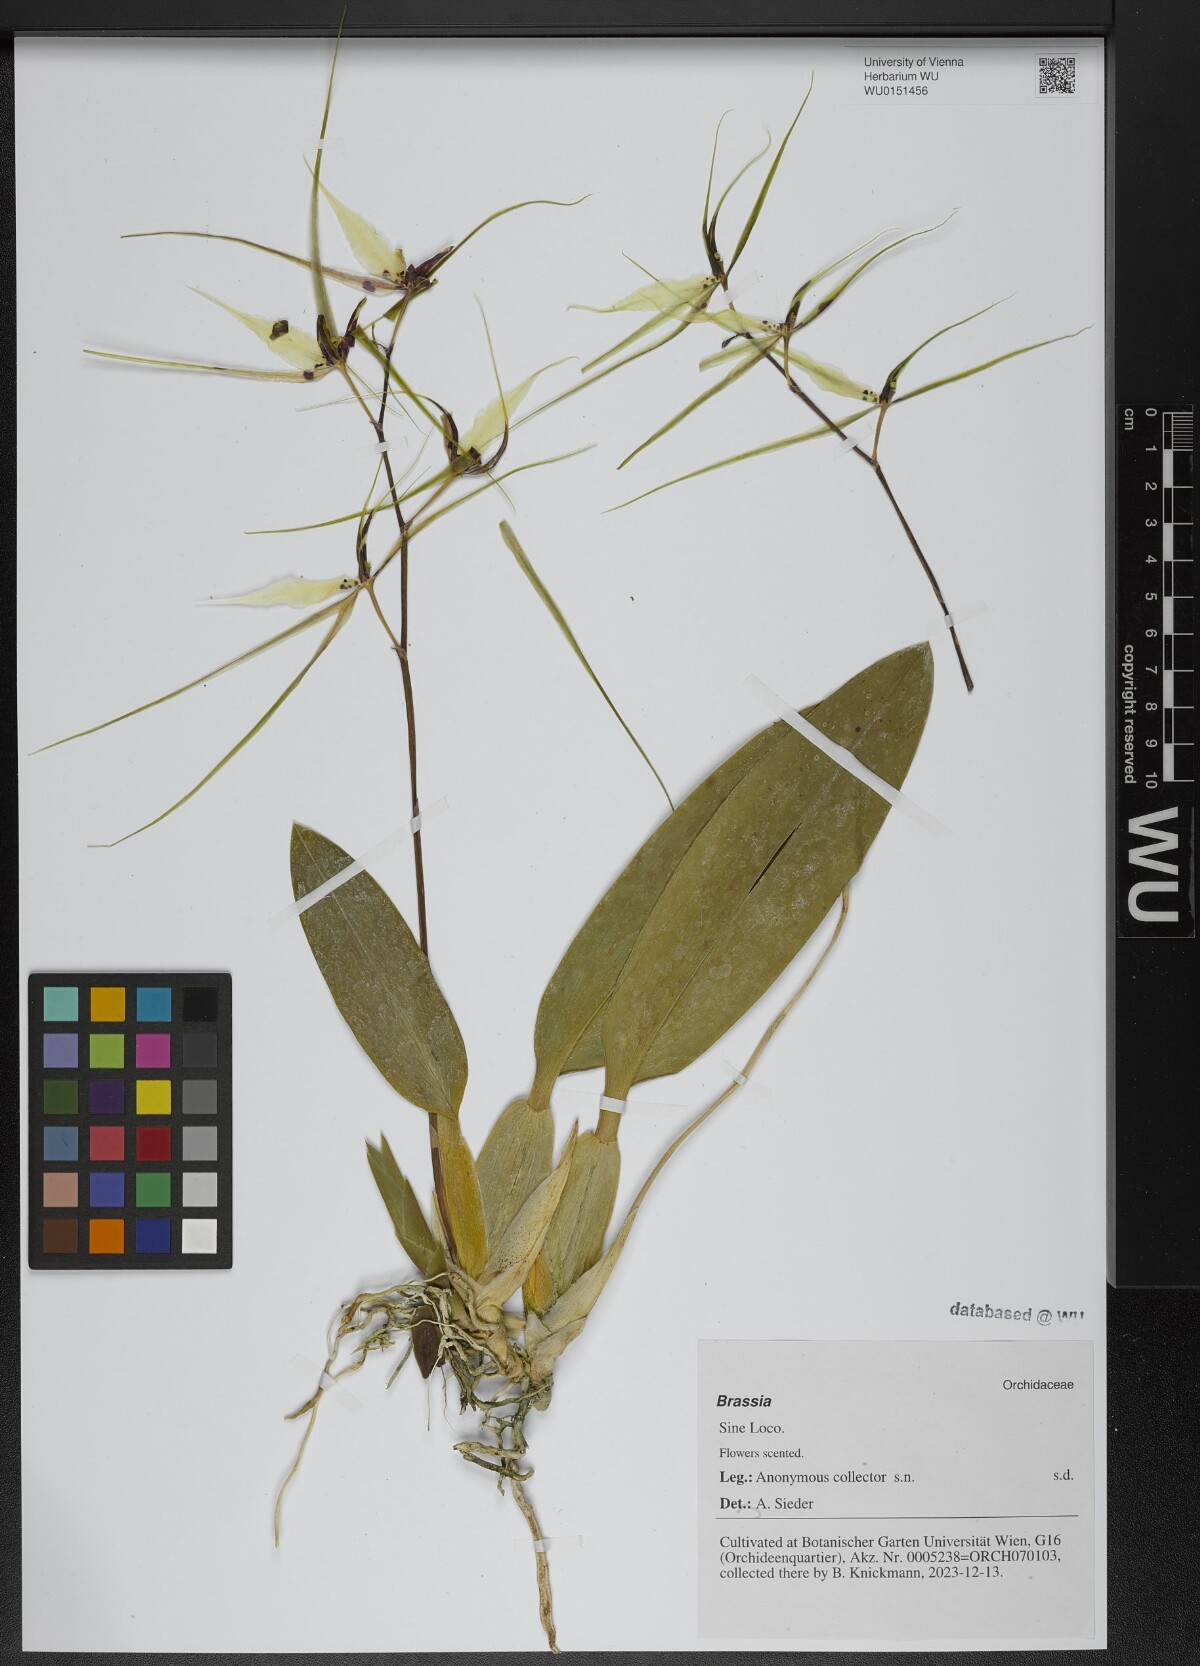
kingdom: Plantae
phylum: Tracheophyta
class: Liliopsida
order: Asparagales
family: Orchidaceae
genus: Brassia
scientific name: Brassia
